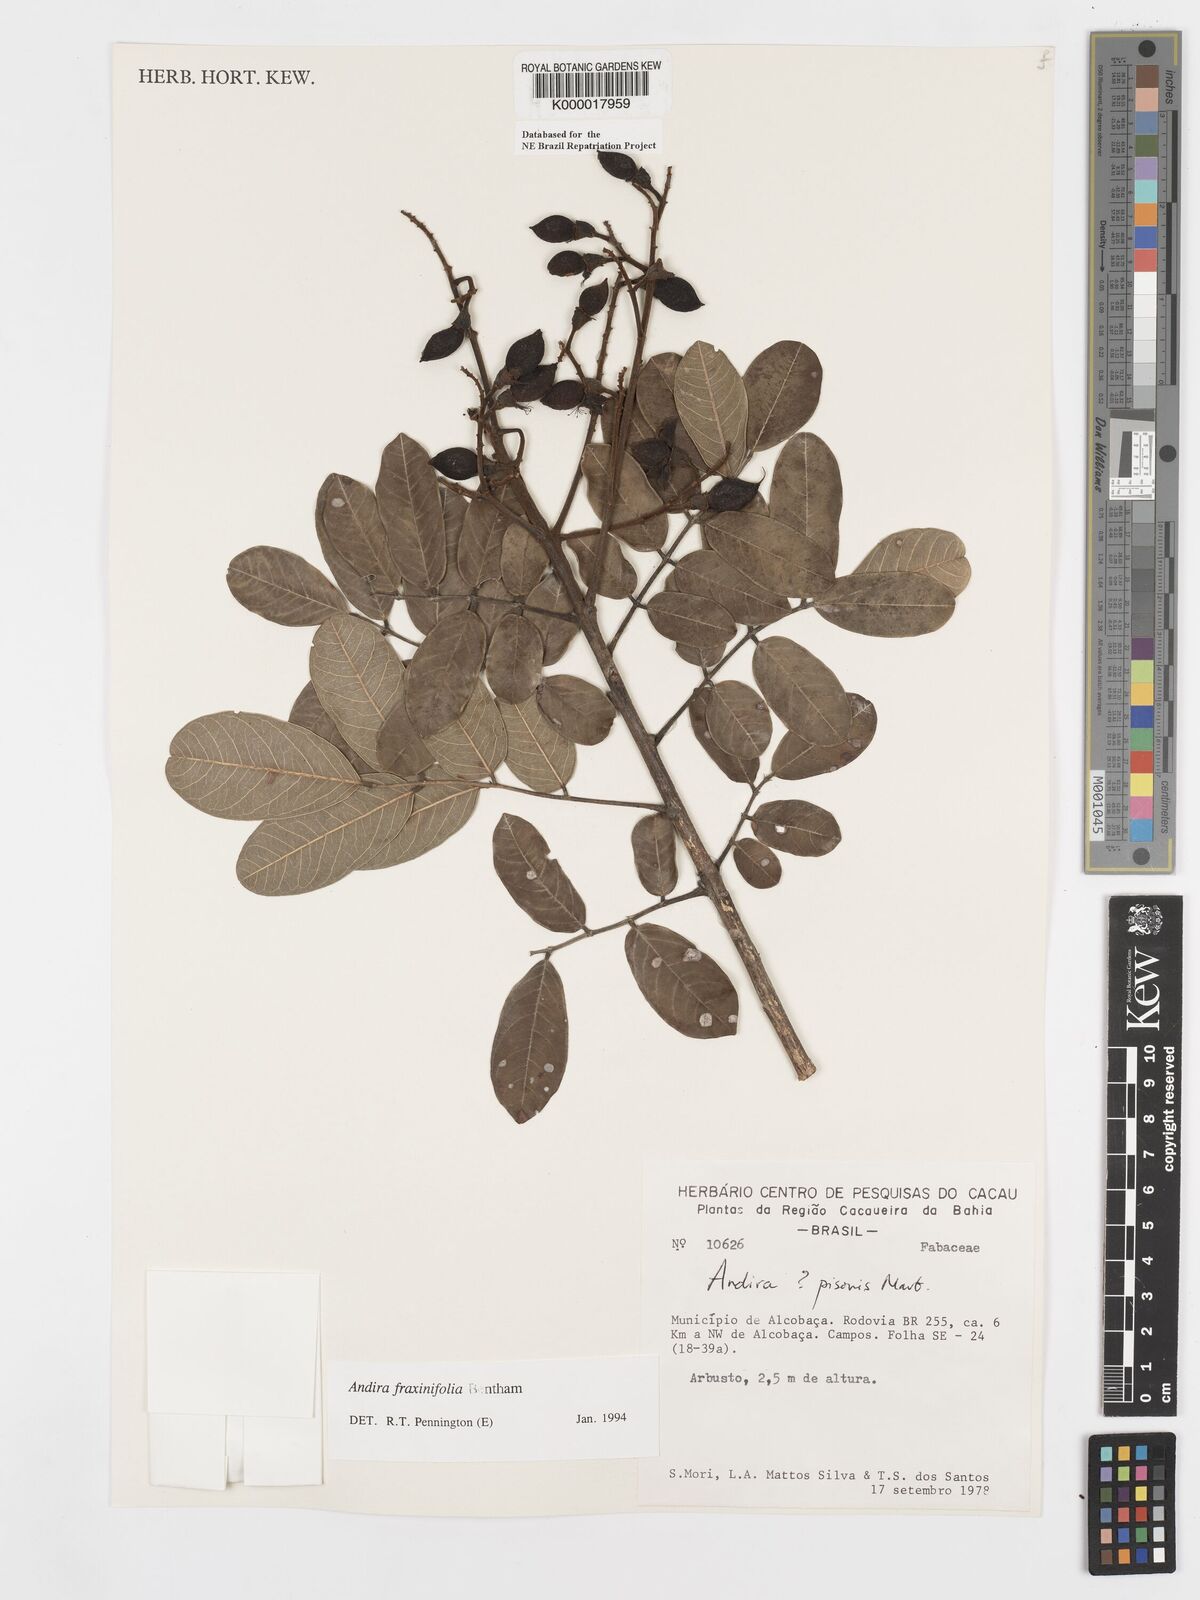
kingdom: Plantae
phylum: Tracheophyta
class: Magnoliopsida
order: Fabales
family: Fabaceae
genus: Andira
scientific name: Andira fraxinifolia
